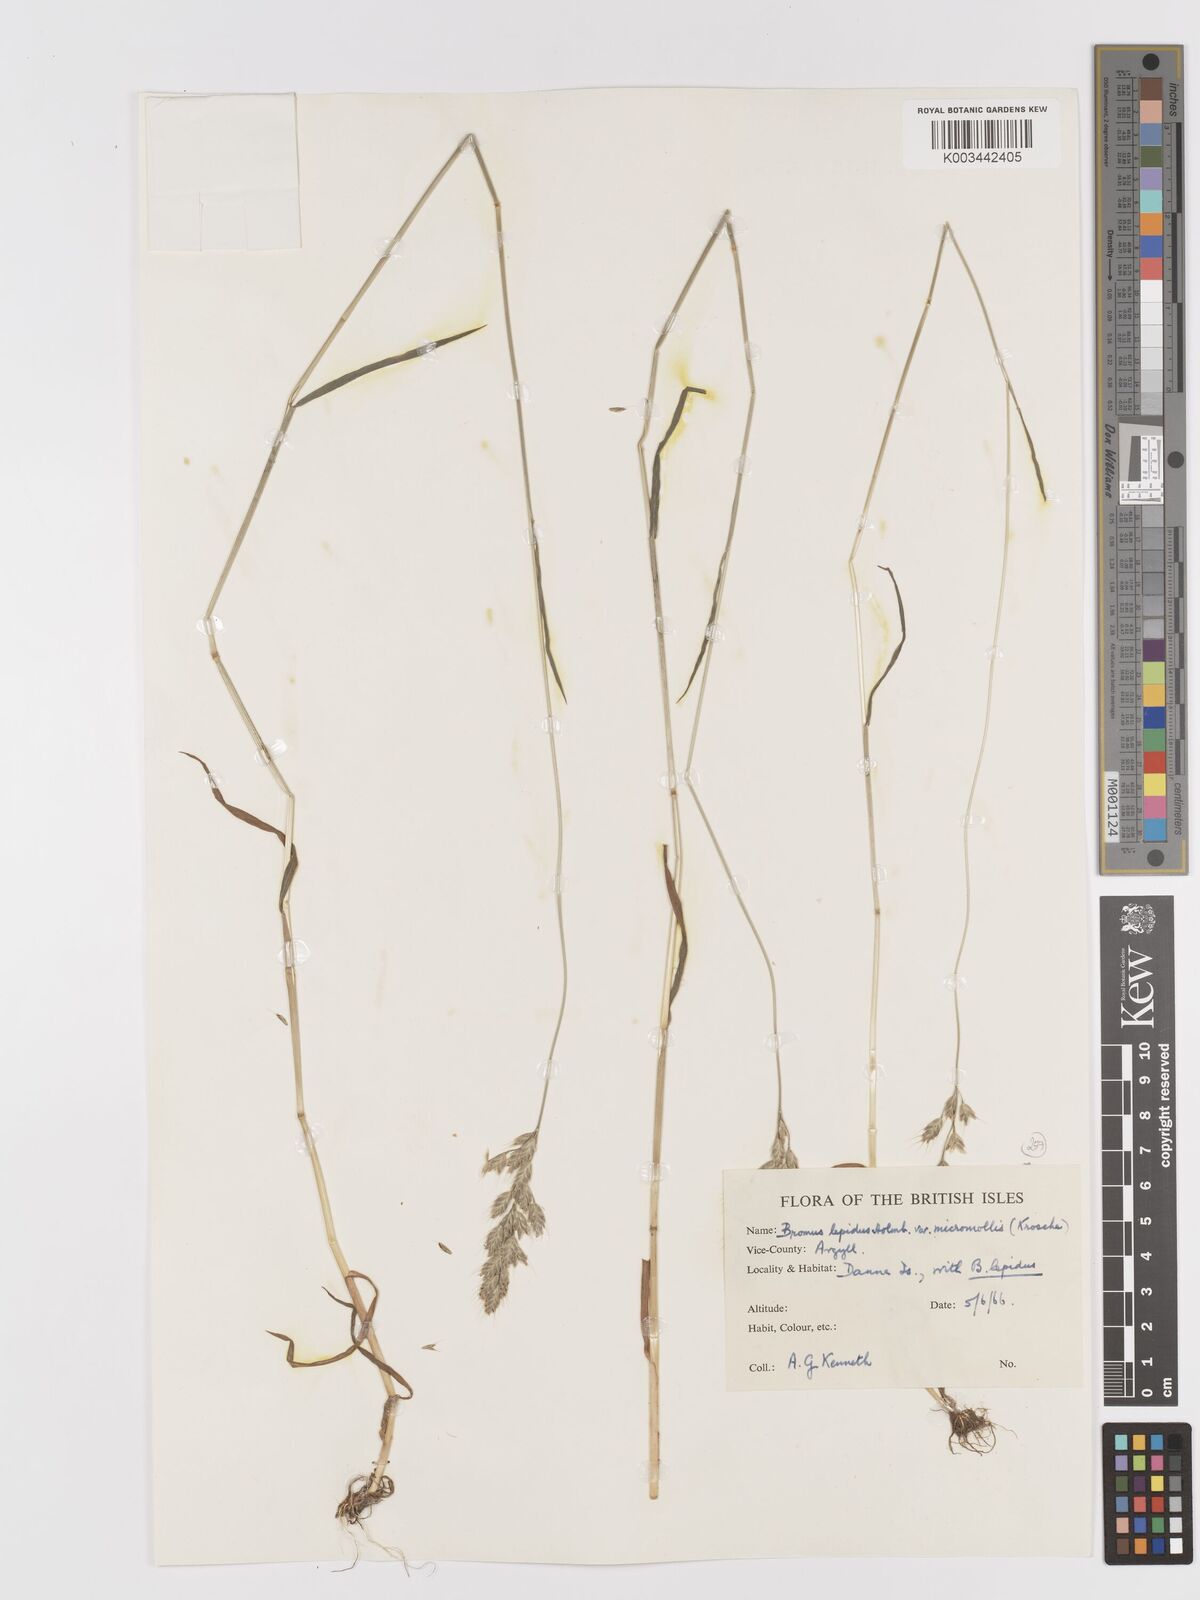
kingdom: Plantae
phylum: Tracheophyta
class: Liliopsida
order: Poales
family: Poaceae
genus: Bromus
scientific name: Bromus lepidus
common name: Slender soft-brome
